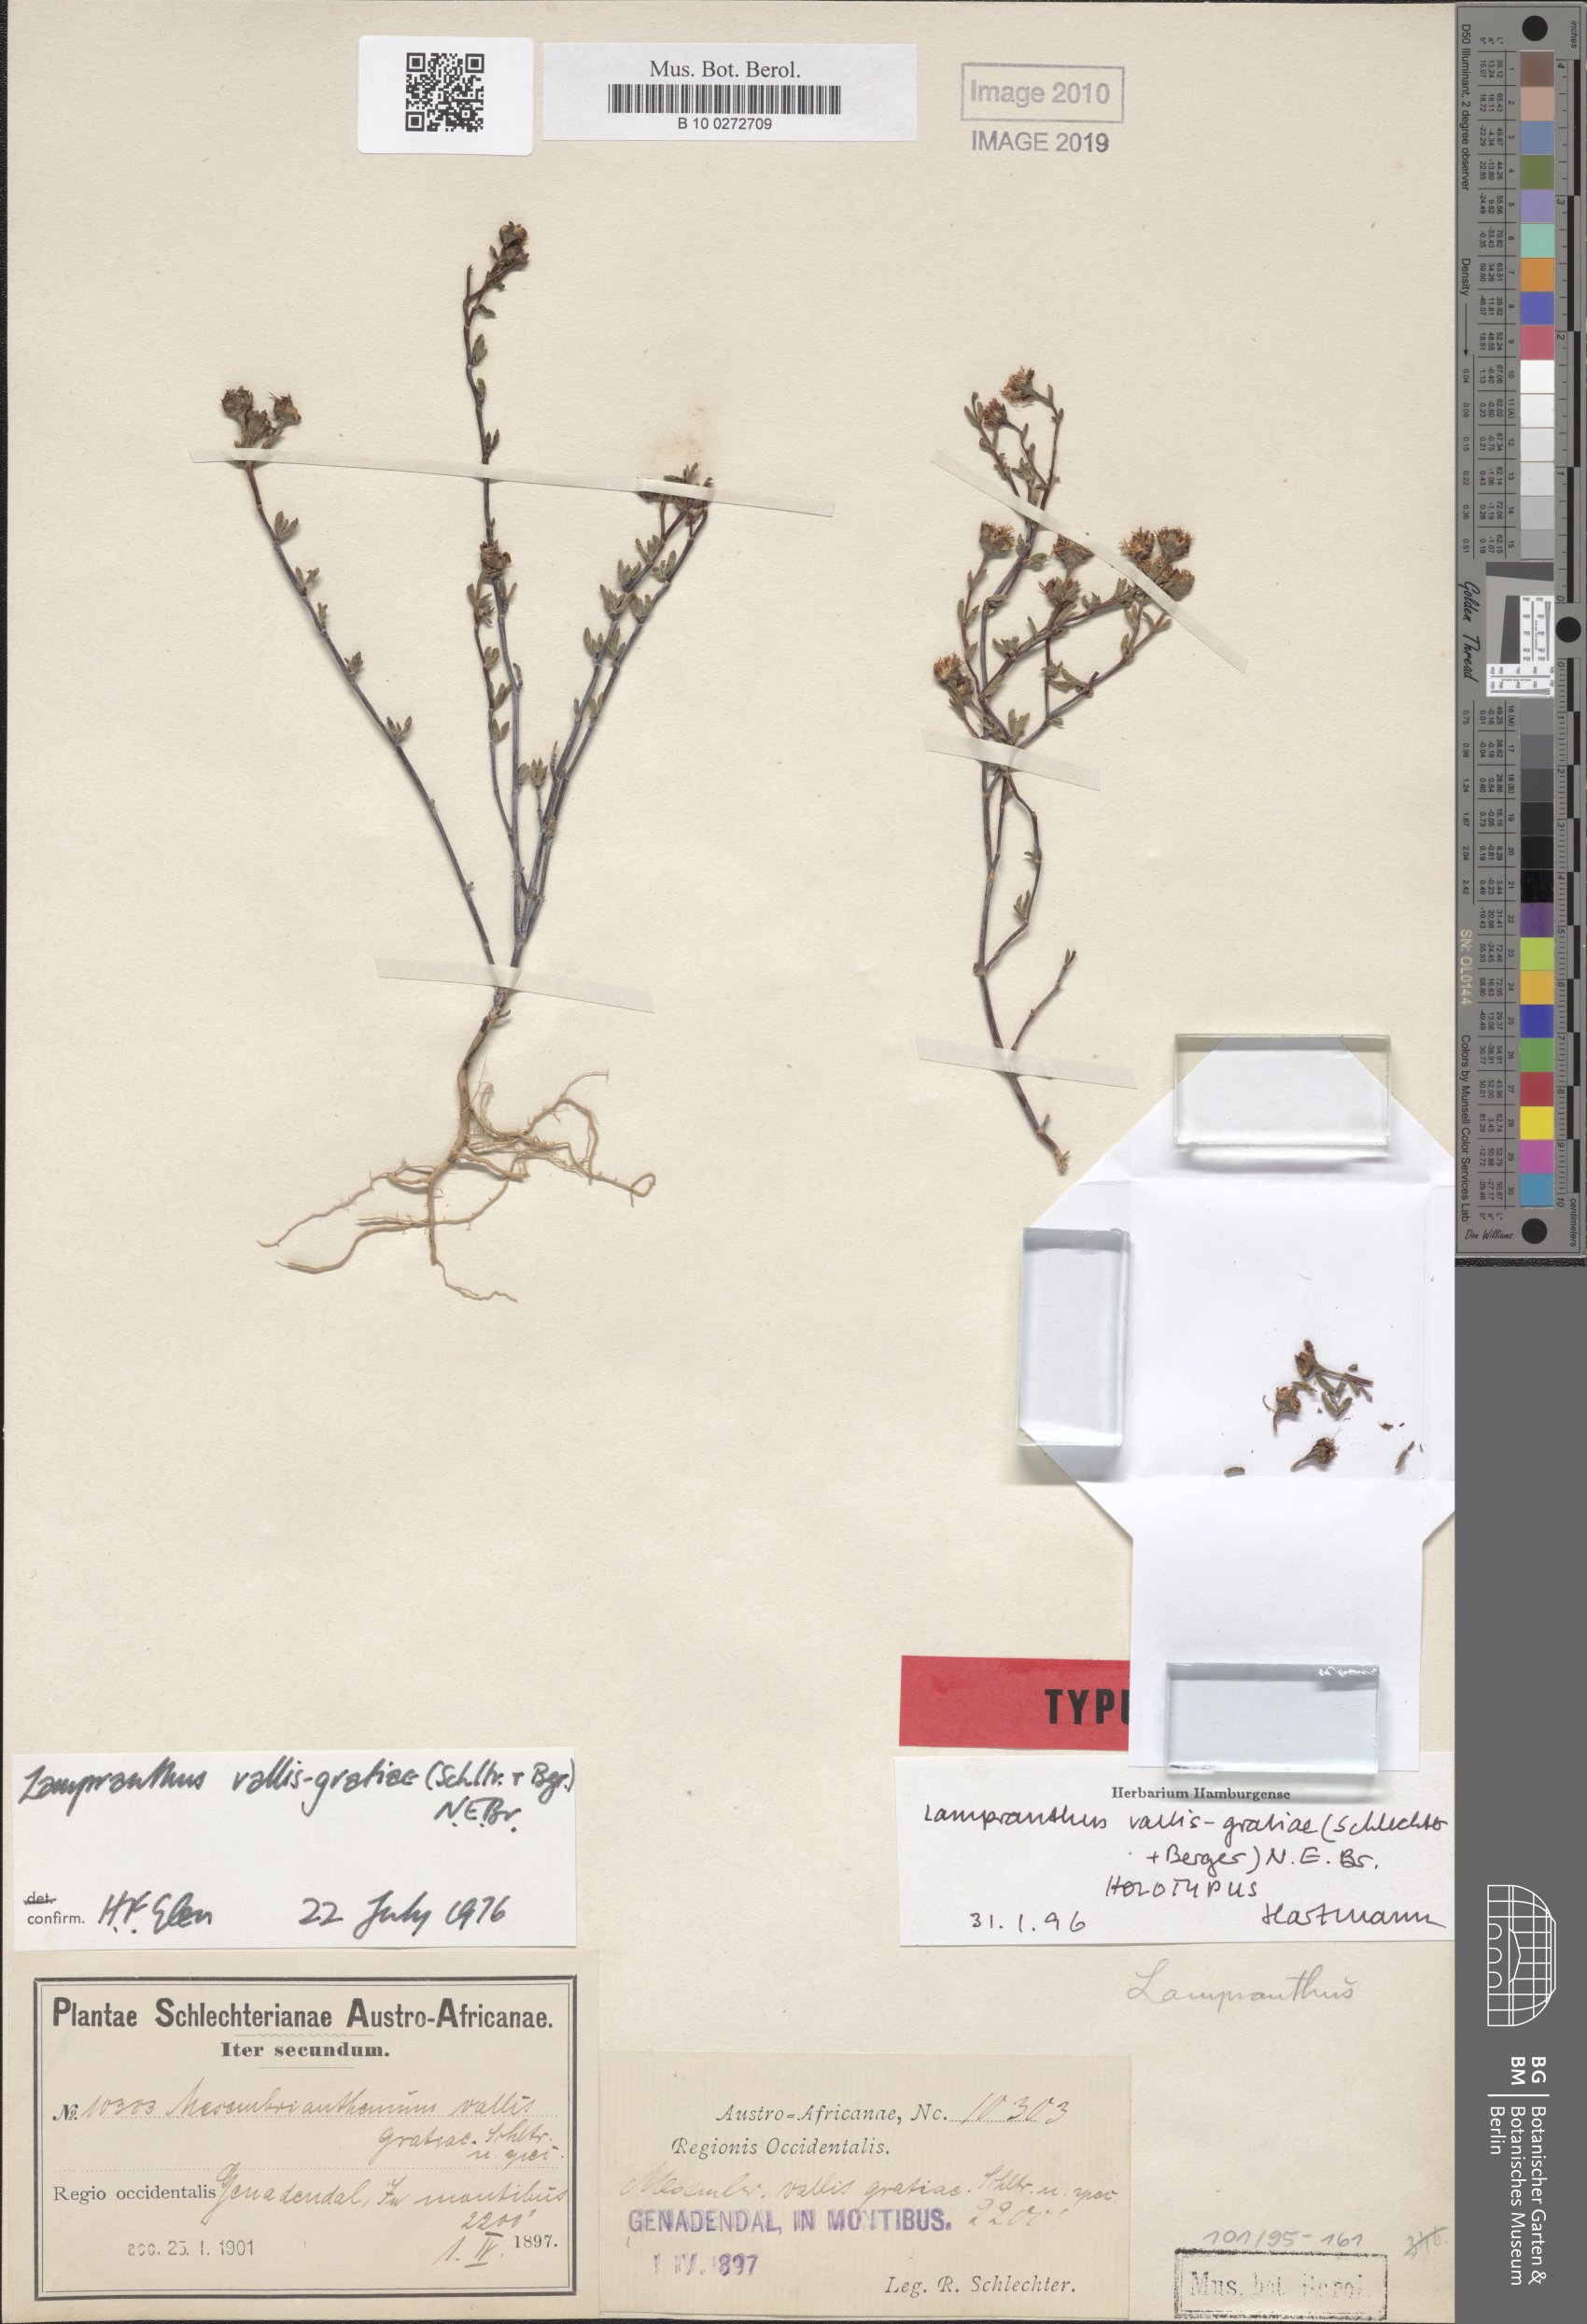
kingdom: Plantae
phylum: Tracheophyta
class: Magnoliopsida
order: Caryophyllales
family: Aizoaceae
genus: Lampranthus
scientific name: Lampranthus vallis-gratiae
